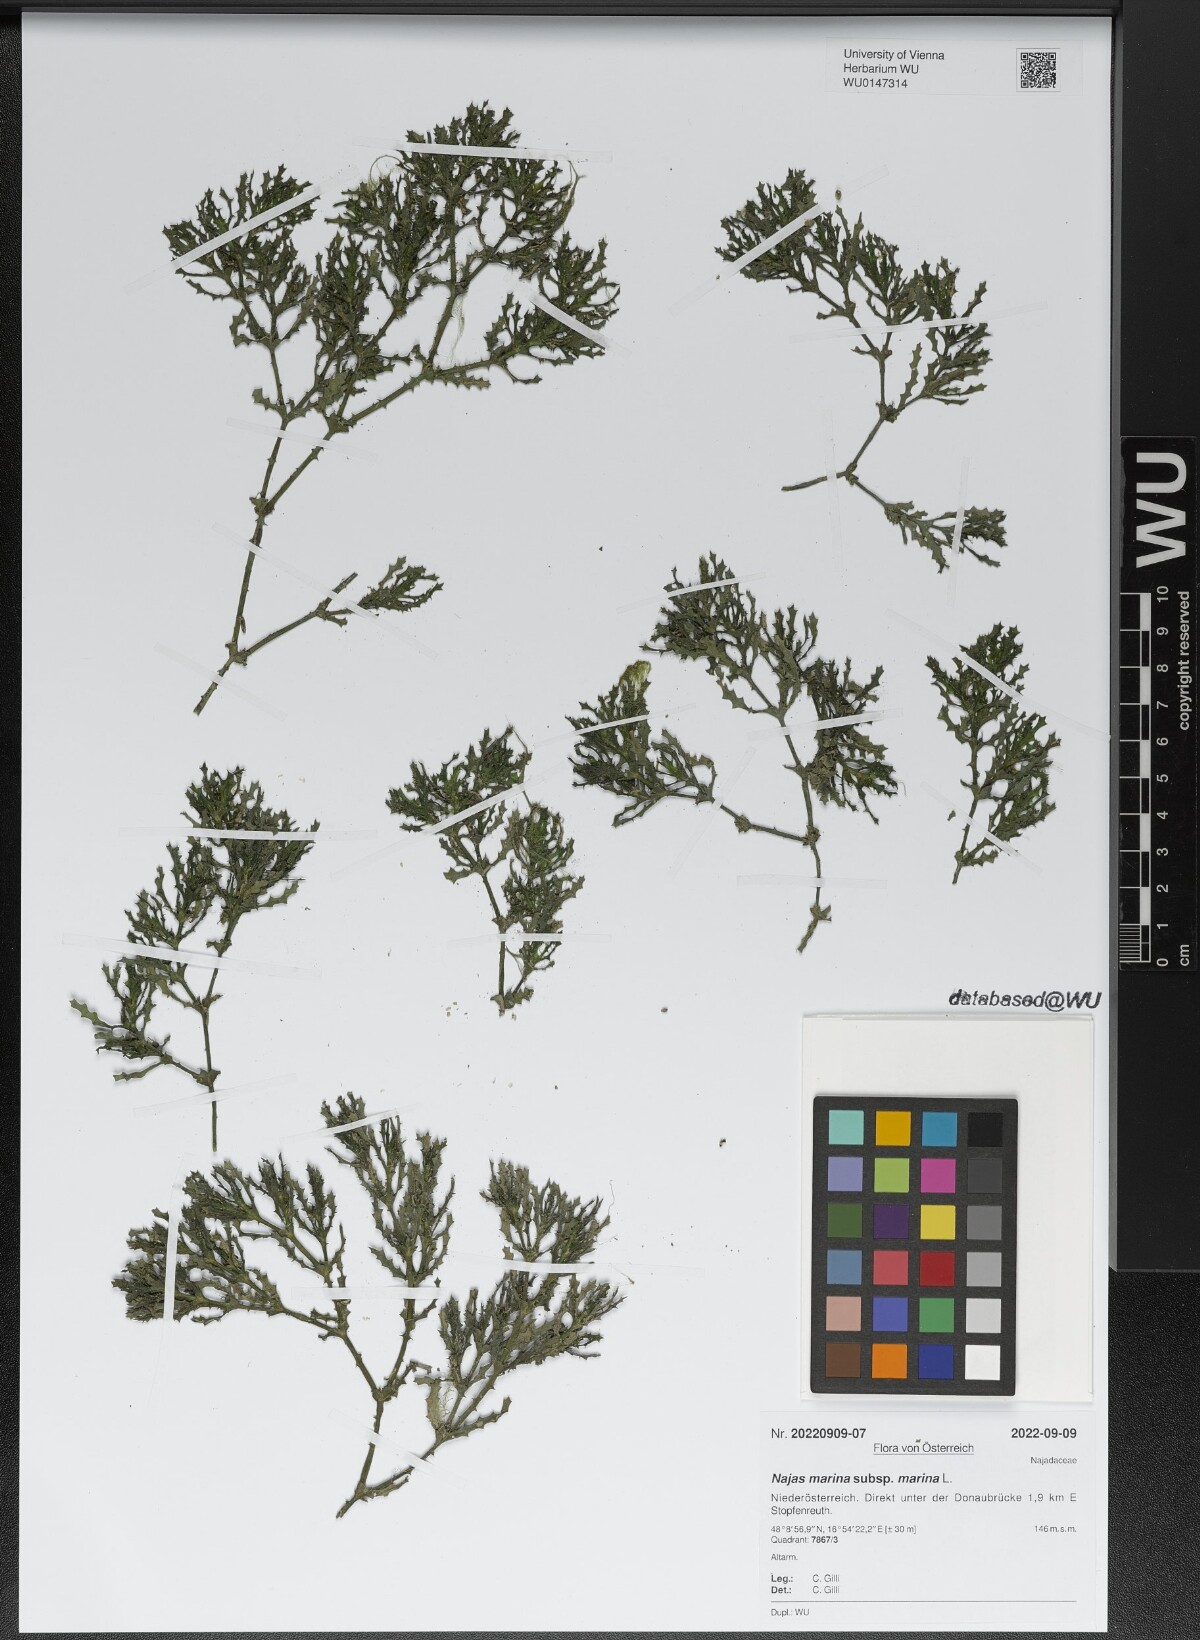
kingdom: Plantae
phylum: Tracheophyta
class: Liliopsida
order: Alismatales
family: Hydrocharitaceae
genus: Najas
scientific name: Najas marina
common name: Holly-leaved naiad
